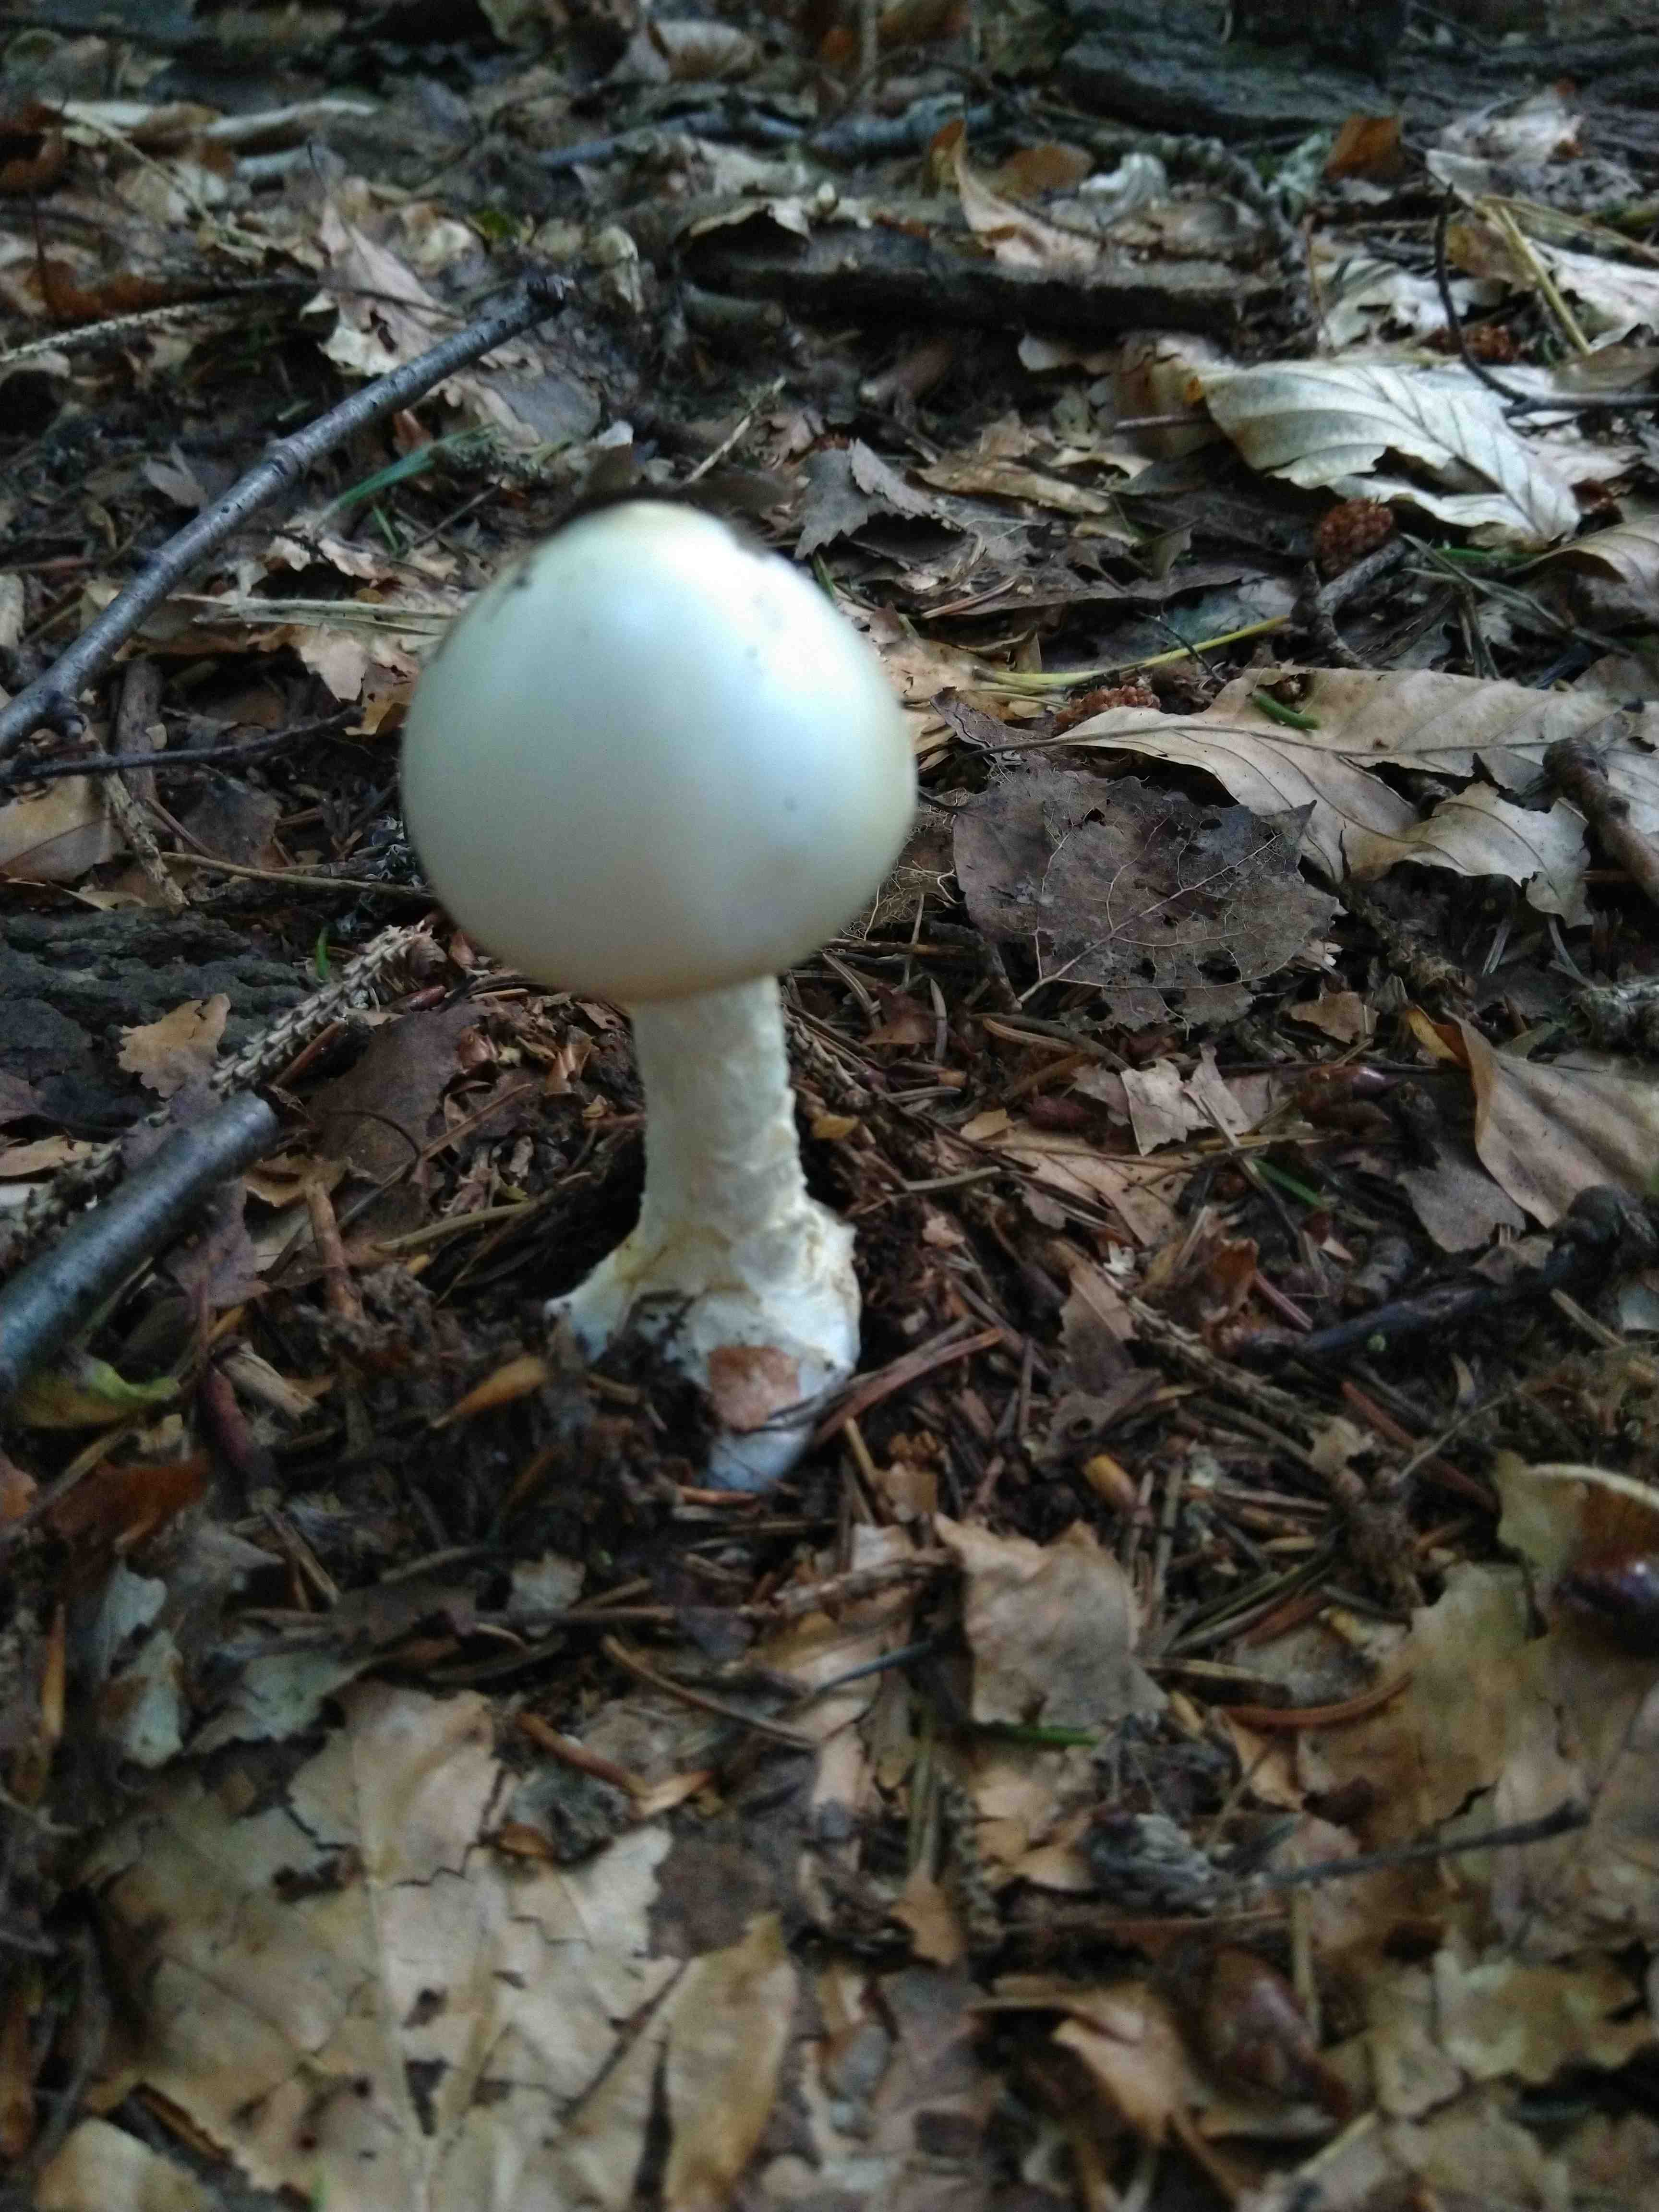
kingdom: Fungi
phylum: Basidiomycota
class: Agaricomycetes
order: Agaricales
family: Amanitaceae
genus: Amanita
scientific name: Amanita virosa
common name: snehvid fluesvamp
